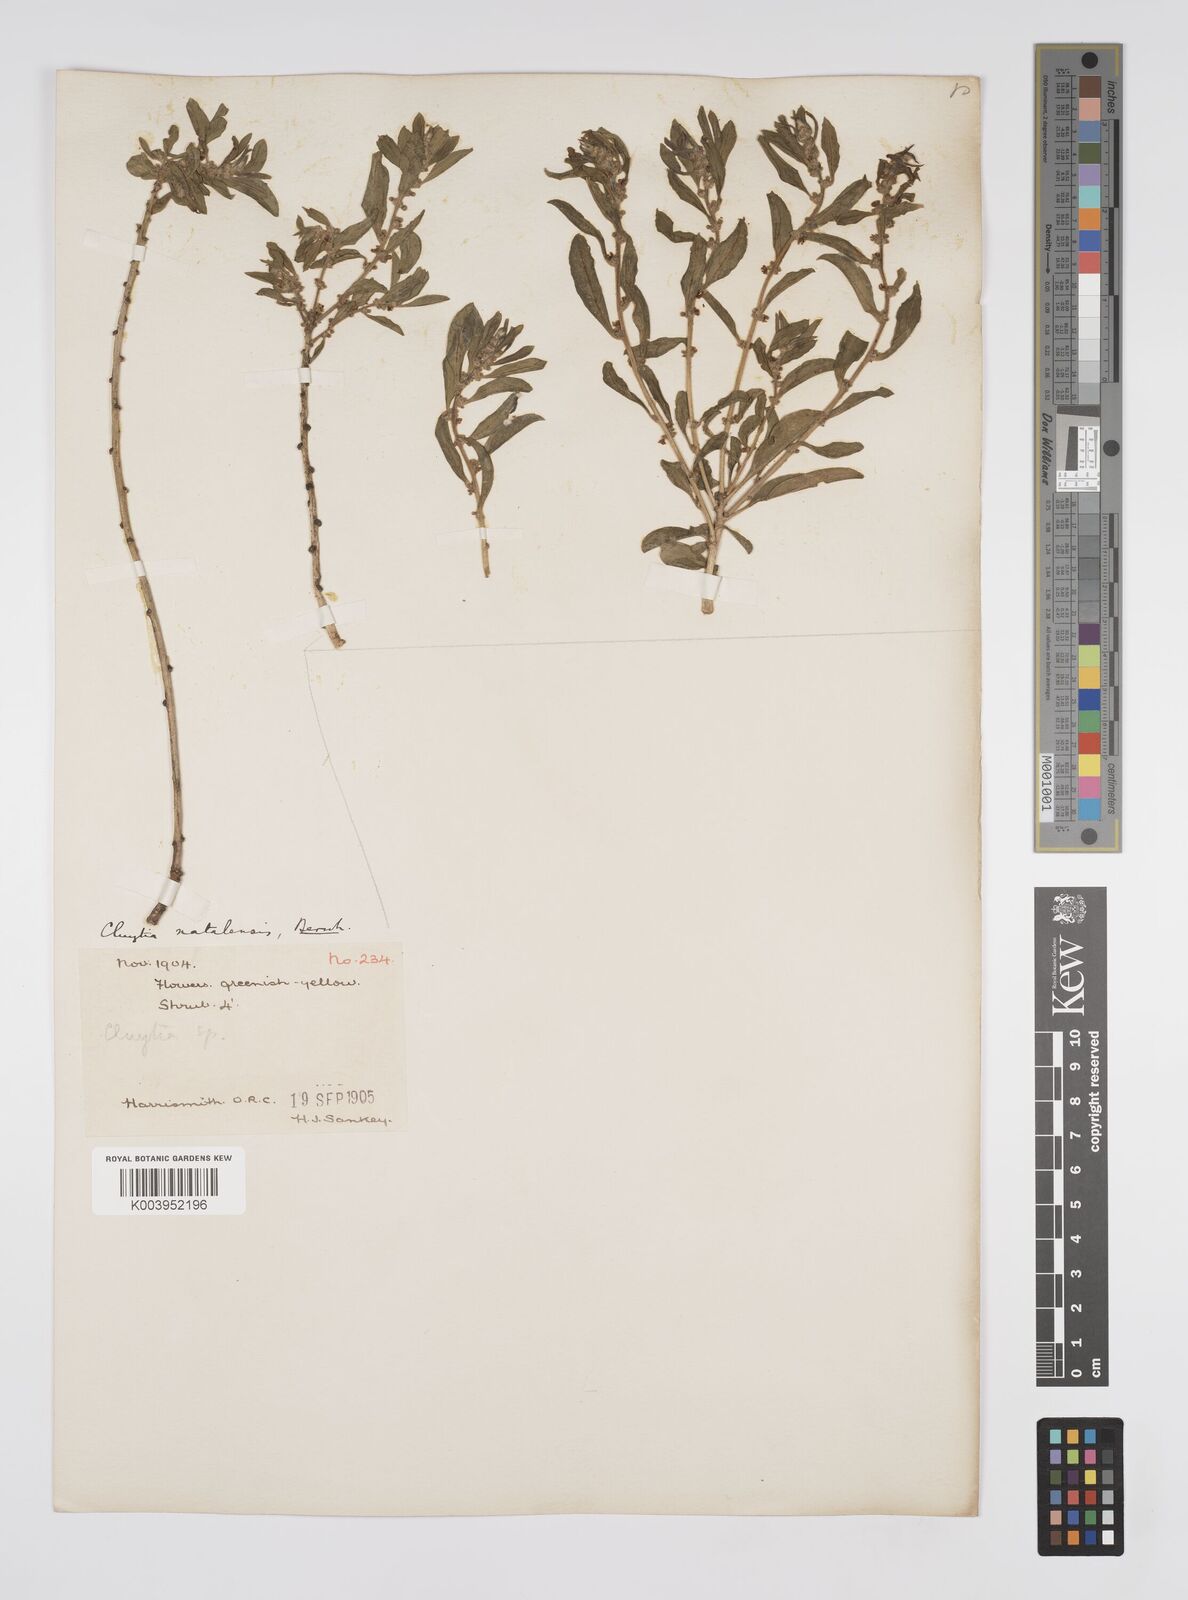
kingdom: Plantae
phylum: Tracheophyta
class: Magnoliopsida
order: Malpighiales
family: Peraceae
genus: Clutia
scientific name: Clutia natalensis
